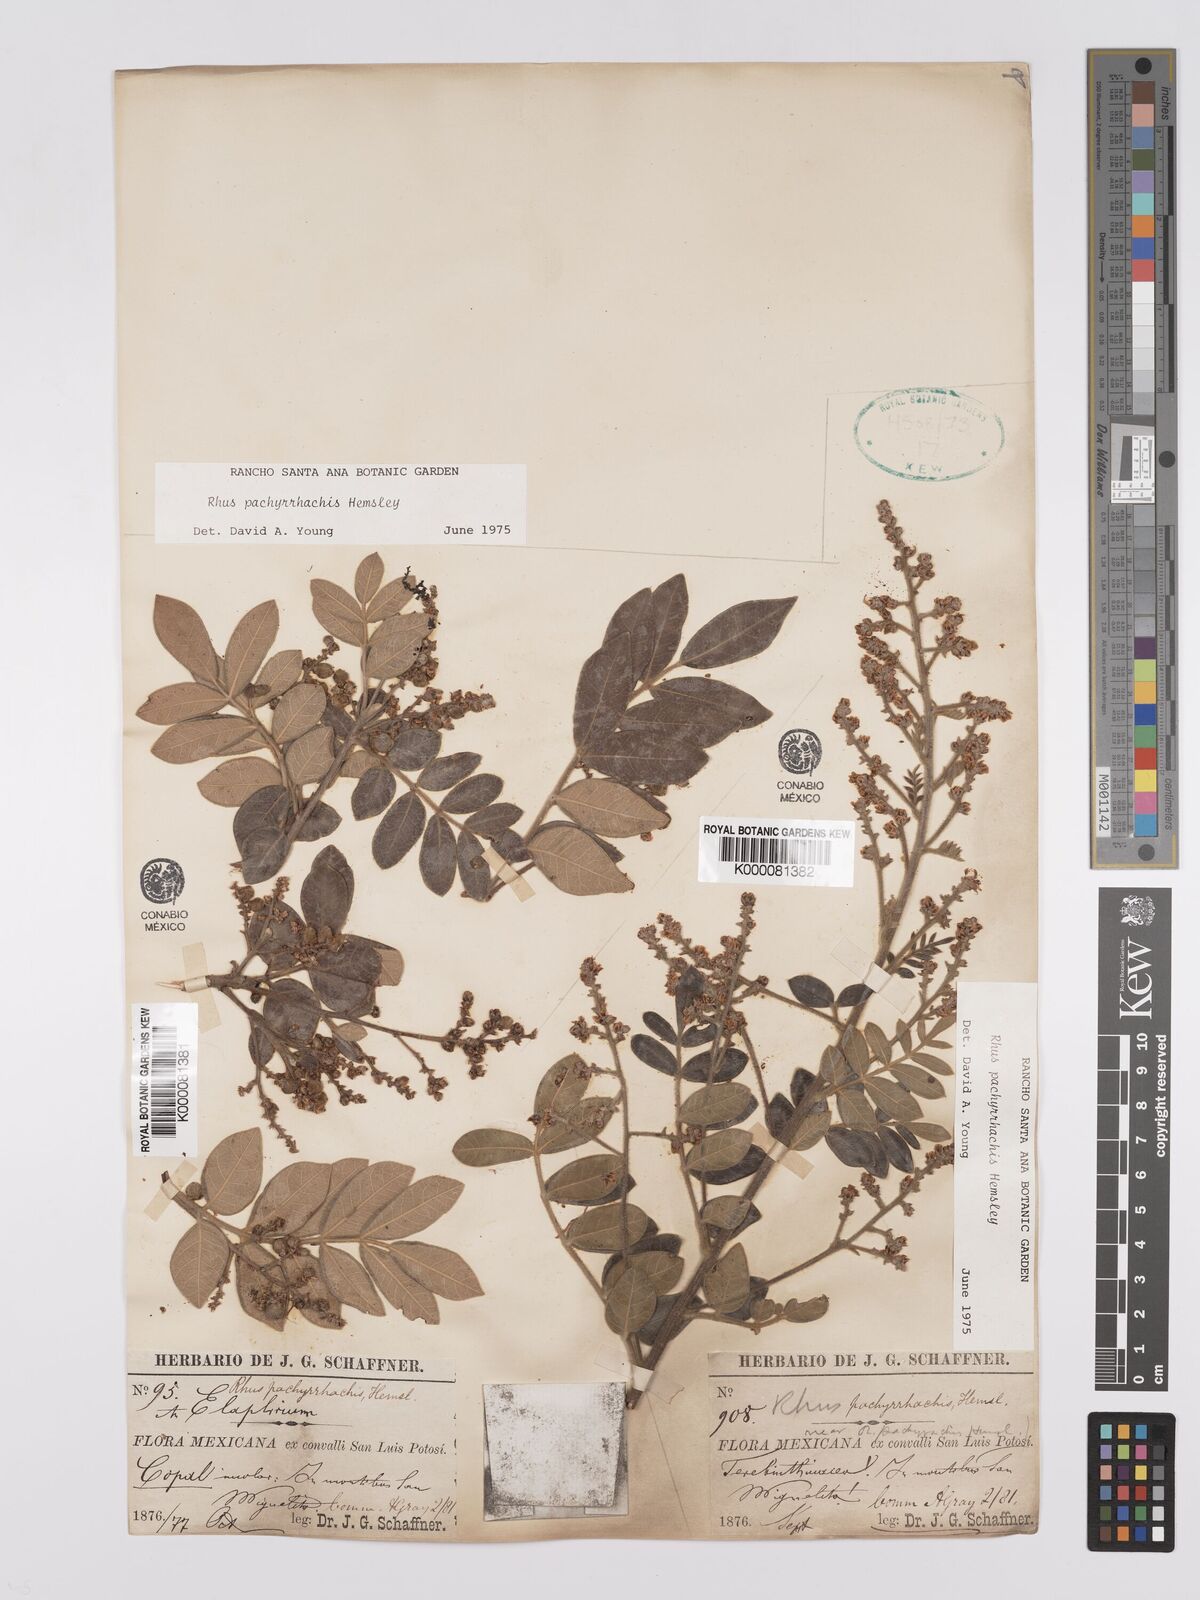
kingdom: Plantae
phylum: Tracheophyta
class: Magnoliopsida
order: Sapindales
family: Anacardiaceae
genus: Rhus
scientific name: Rhus pachyrrhachis
